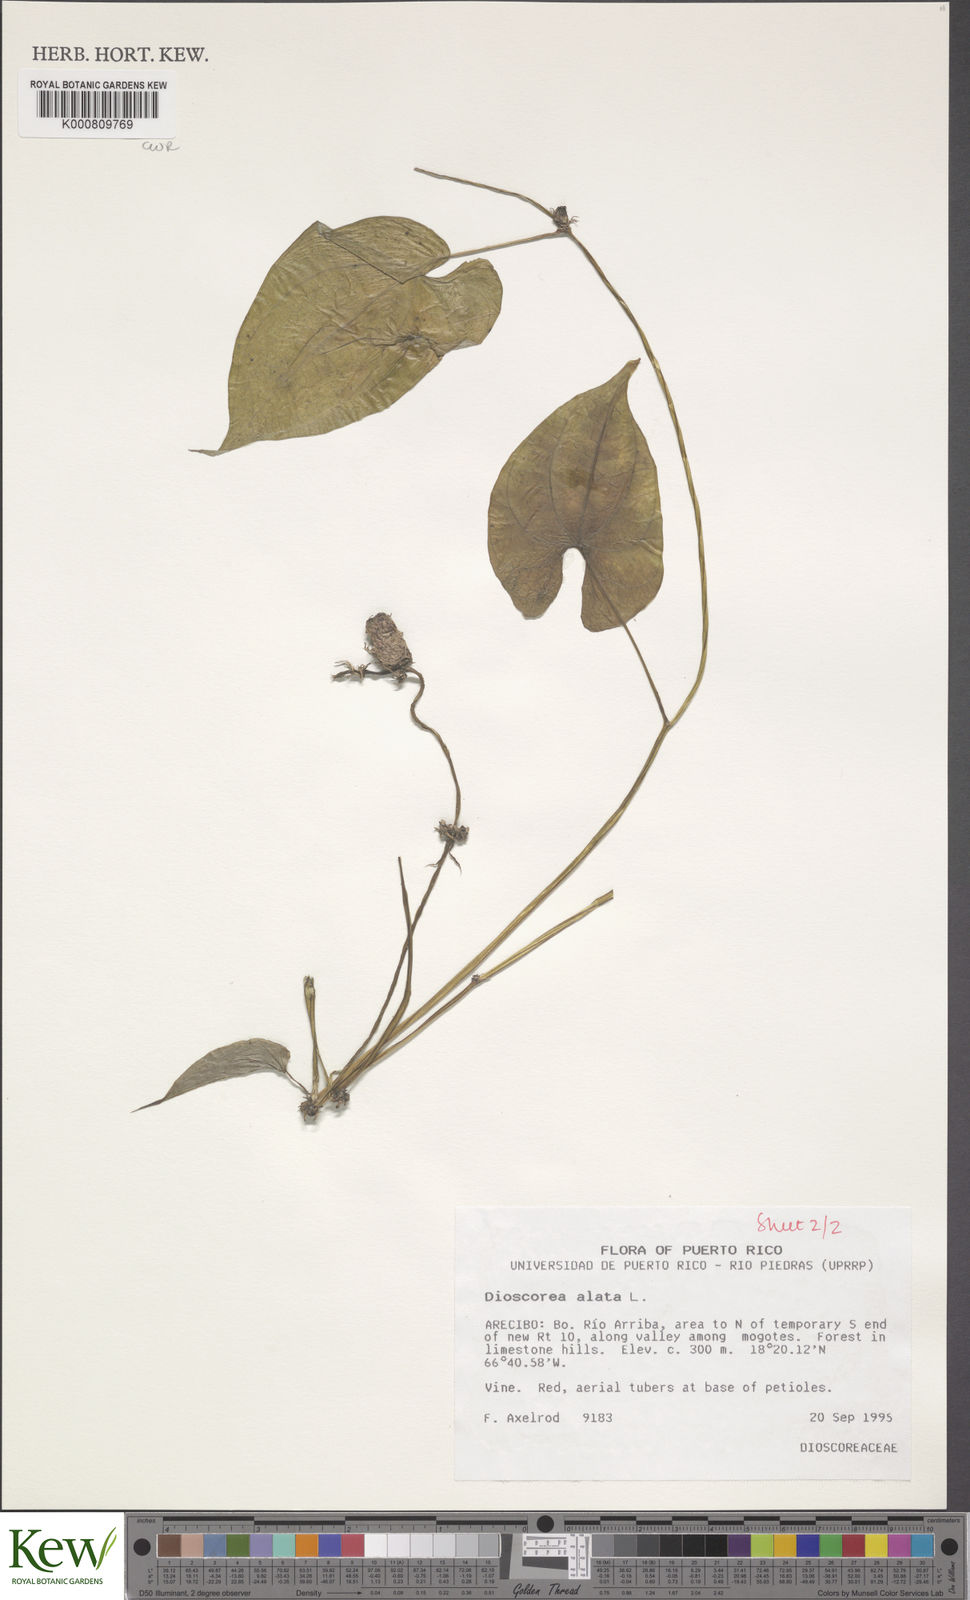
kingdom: Plantae
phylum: Tracheophyta
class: Liliopsida
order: Dioscoreales
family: Dioscoreaceae
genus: Dioscorea
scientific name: Dioscorea alata
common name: Water yam
